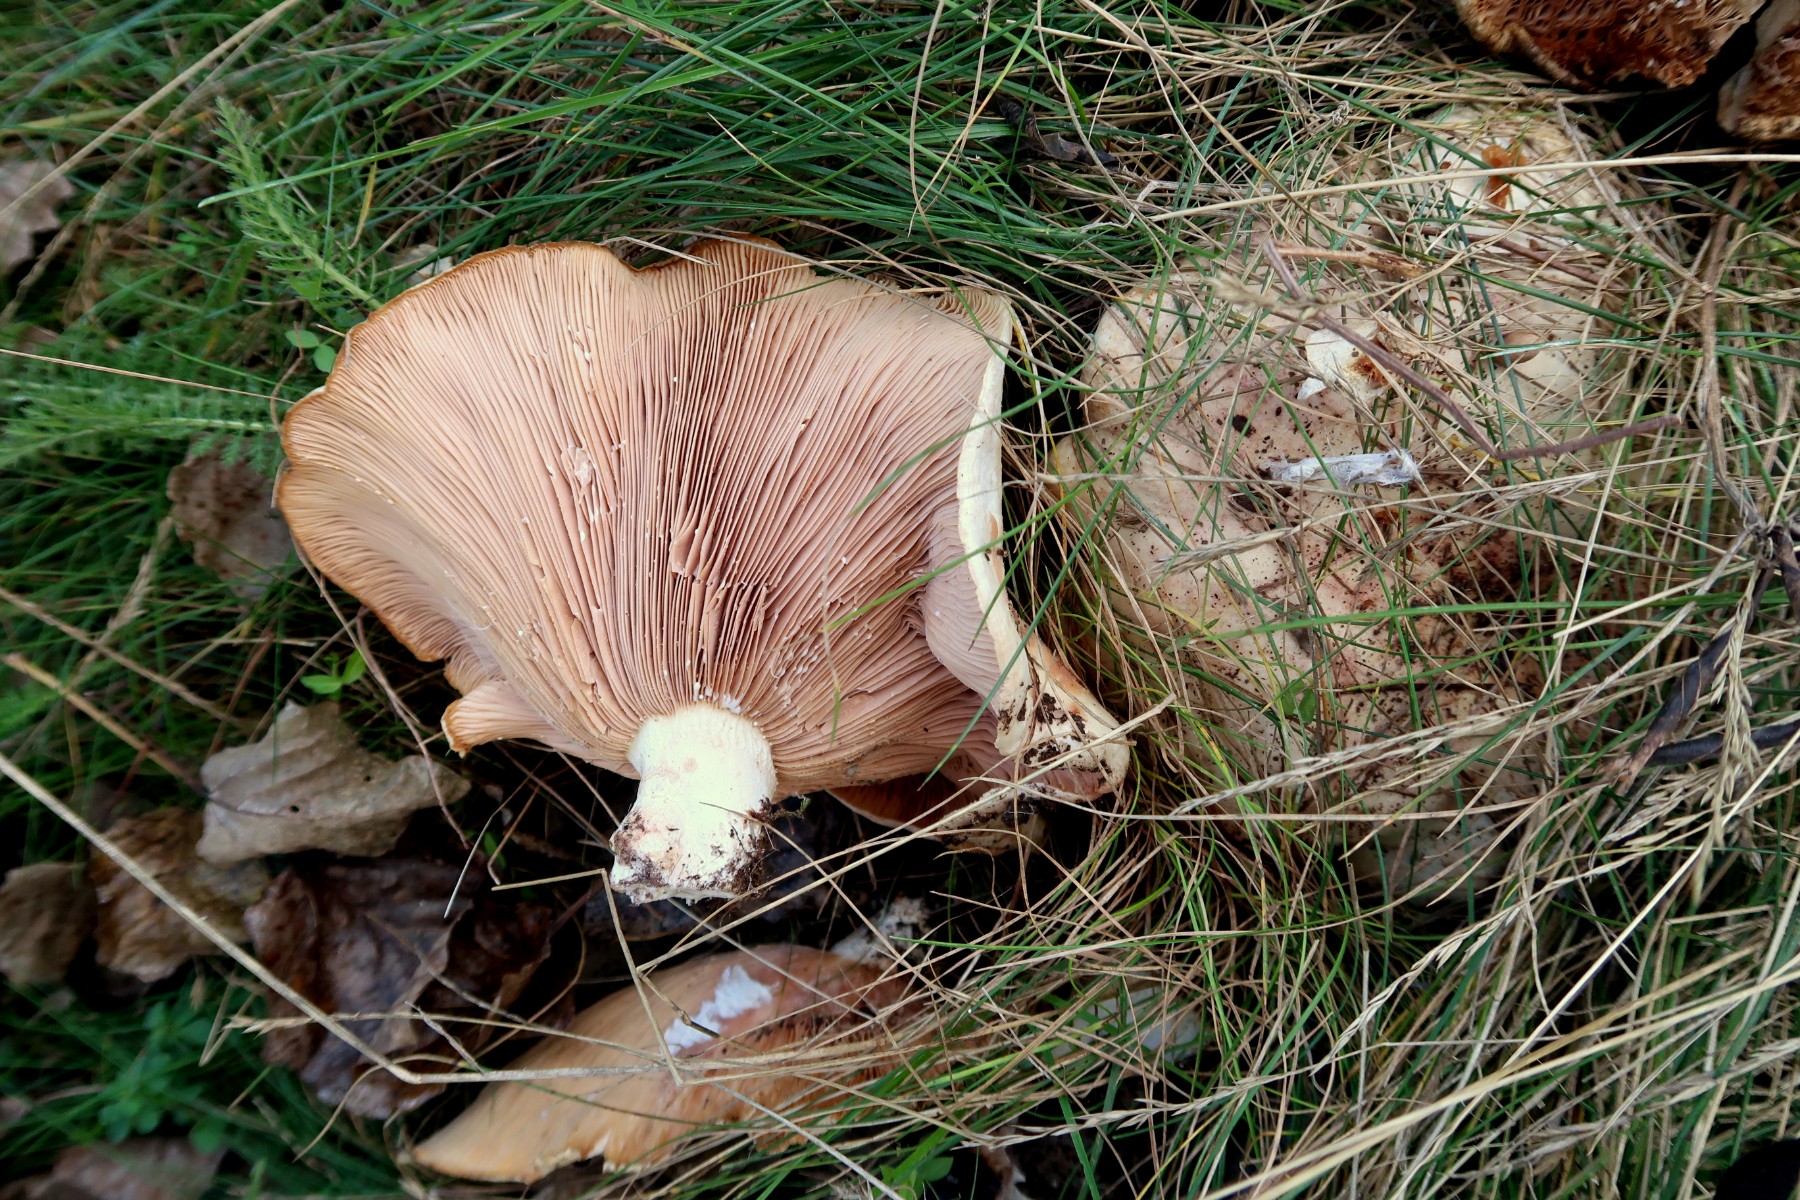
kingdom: Fungi
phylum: Basidiomycota
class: Agaricomycetes
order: Russulales
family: Russulaceae
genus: Lactarius
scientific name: Lactarius controversus
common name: rosabladet mælkehat
